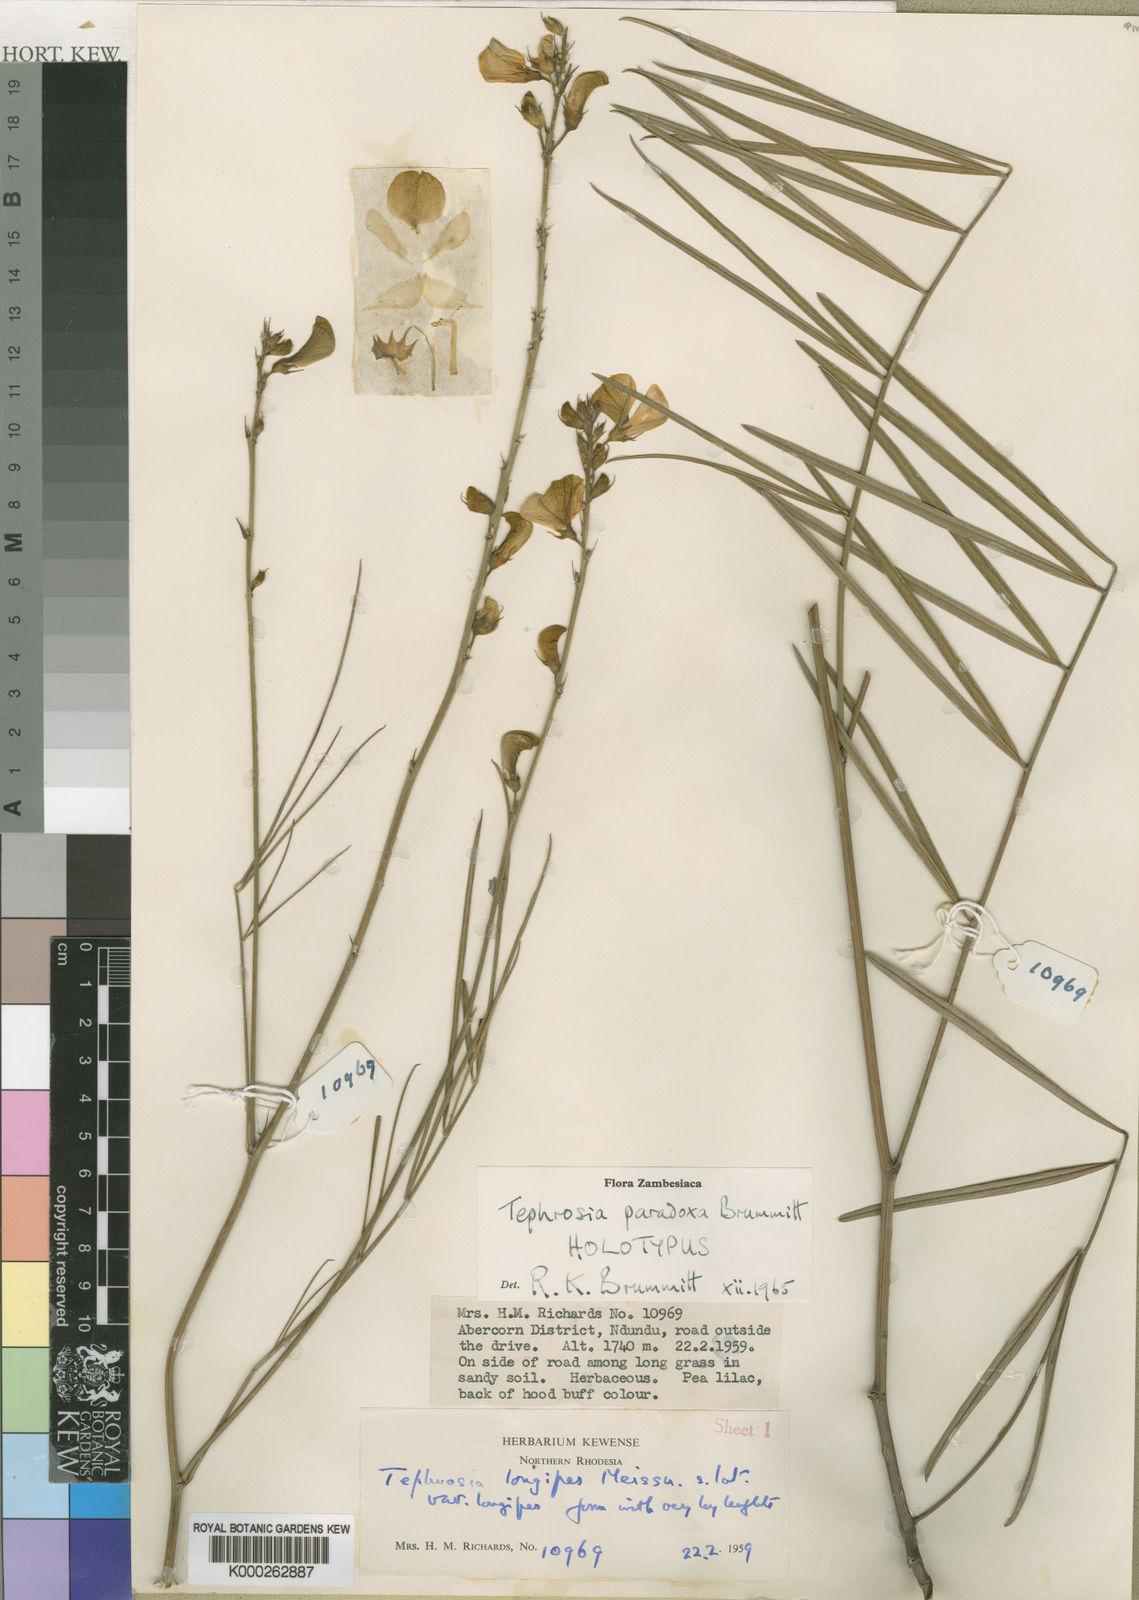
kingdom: Plantae
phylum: Tracheophyta
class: Magnoliopsida
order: Fabales
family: Fabaceae
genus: Tephrosia
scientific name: Tephrosia paradoxa
